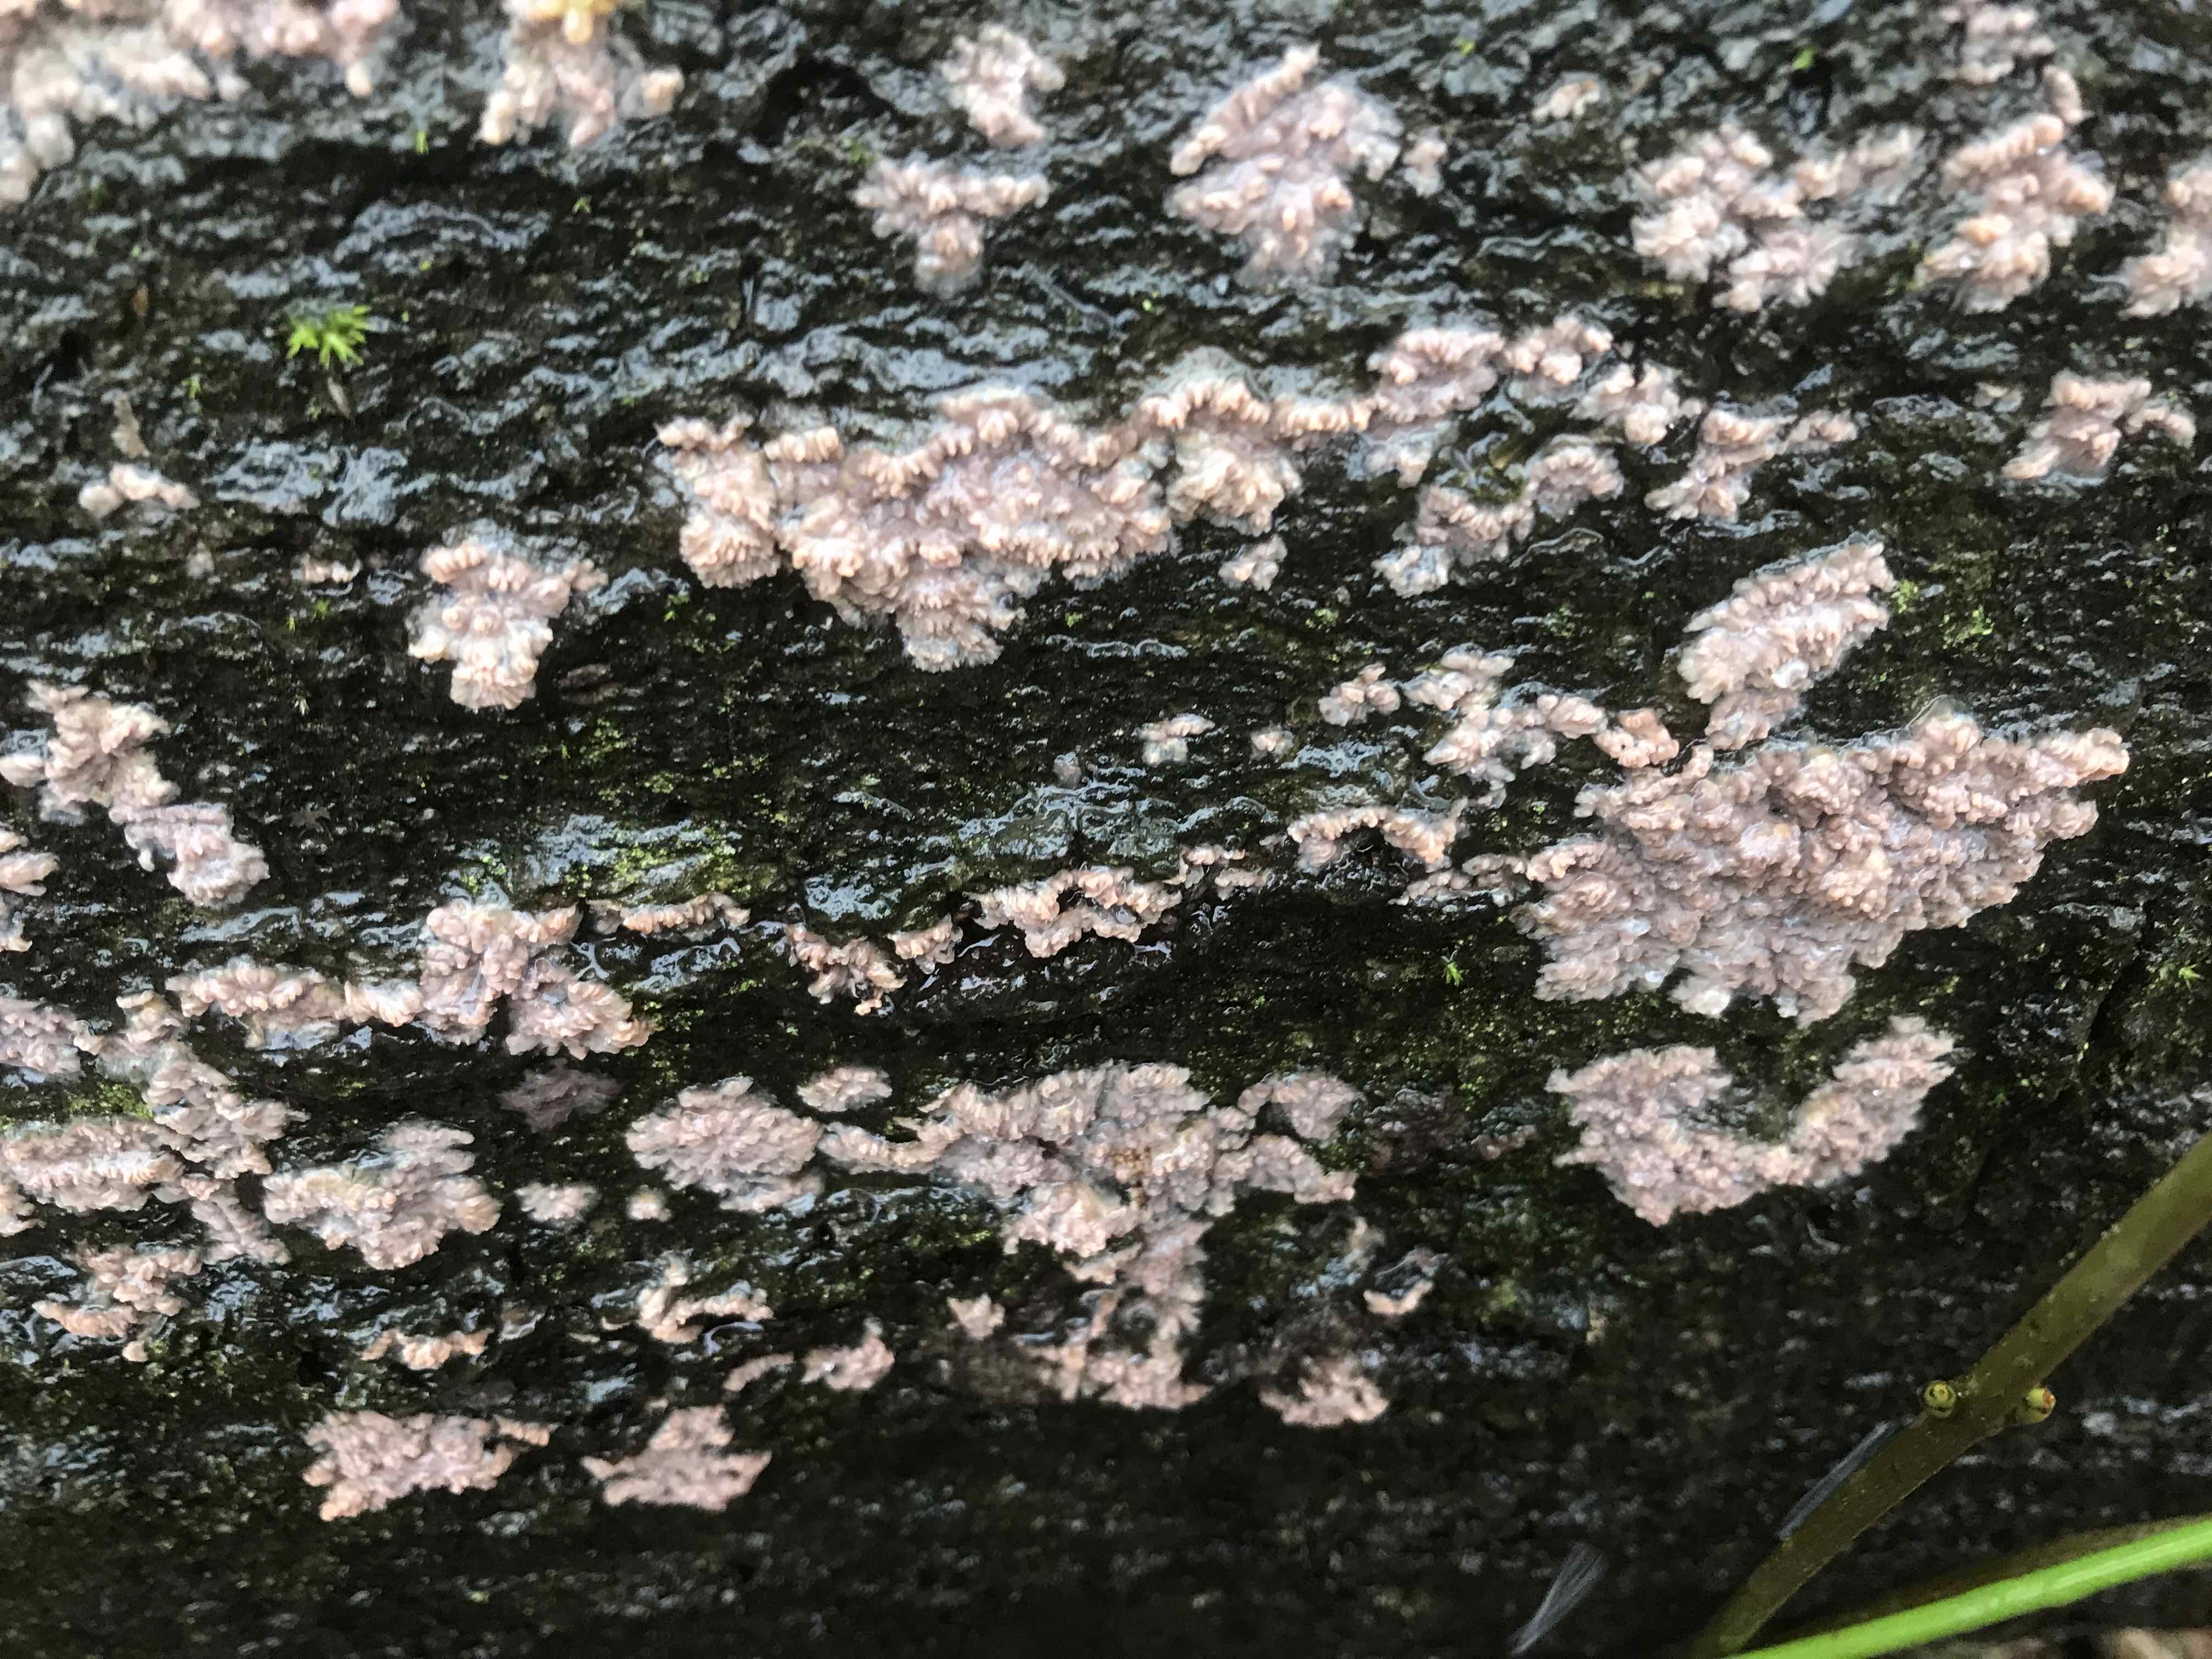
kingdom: Fungi
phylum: Basidiomycota
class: Agaricomycetes
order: Polyporales
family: Meruliaceae
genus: Phlebia
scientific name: Phlebia radiata
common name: stråle-åresvamp
